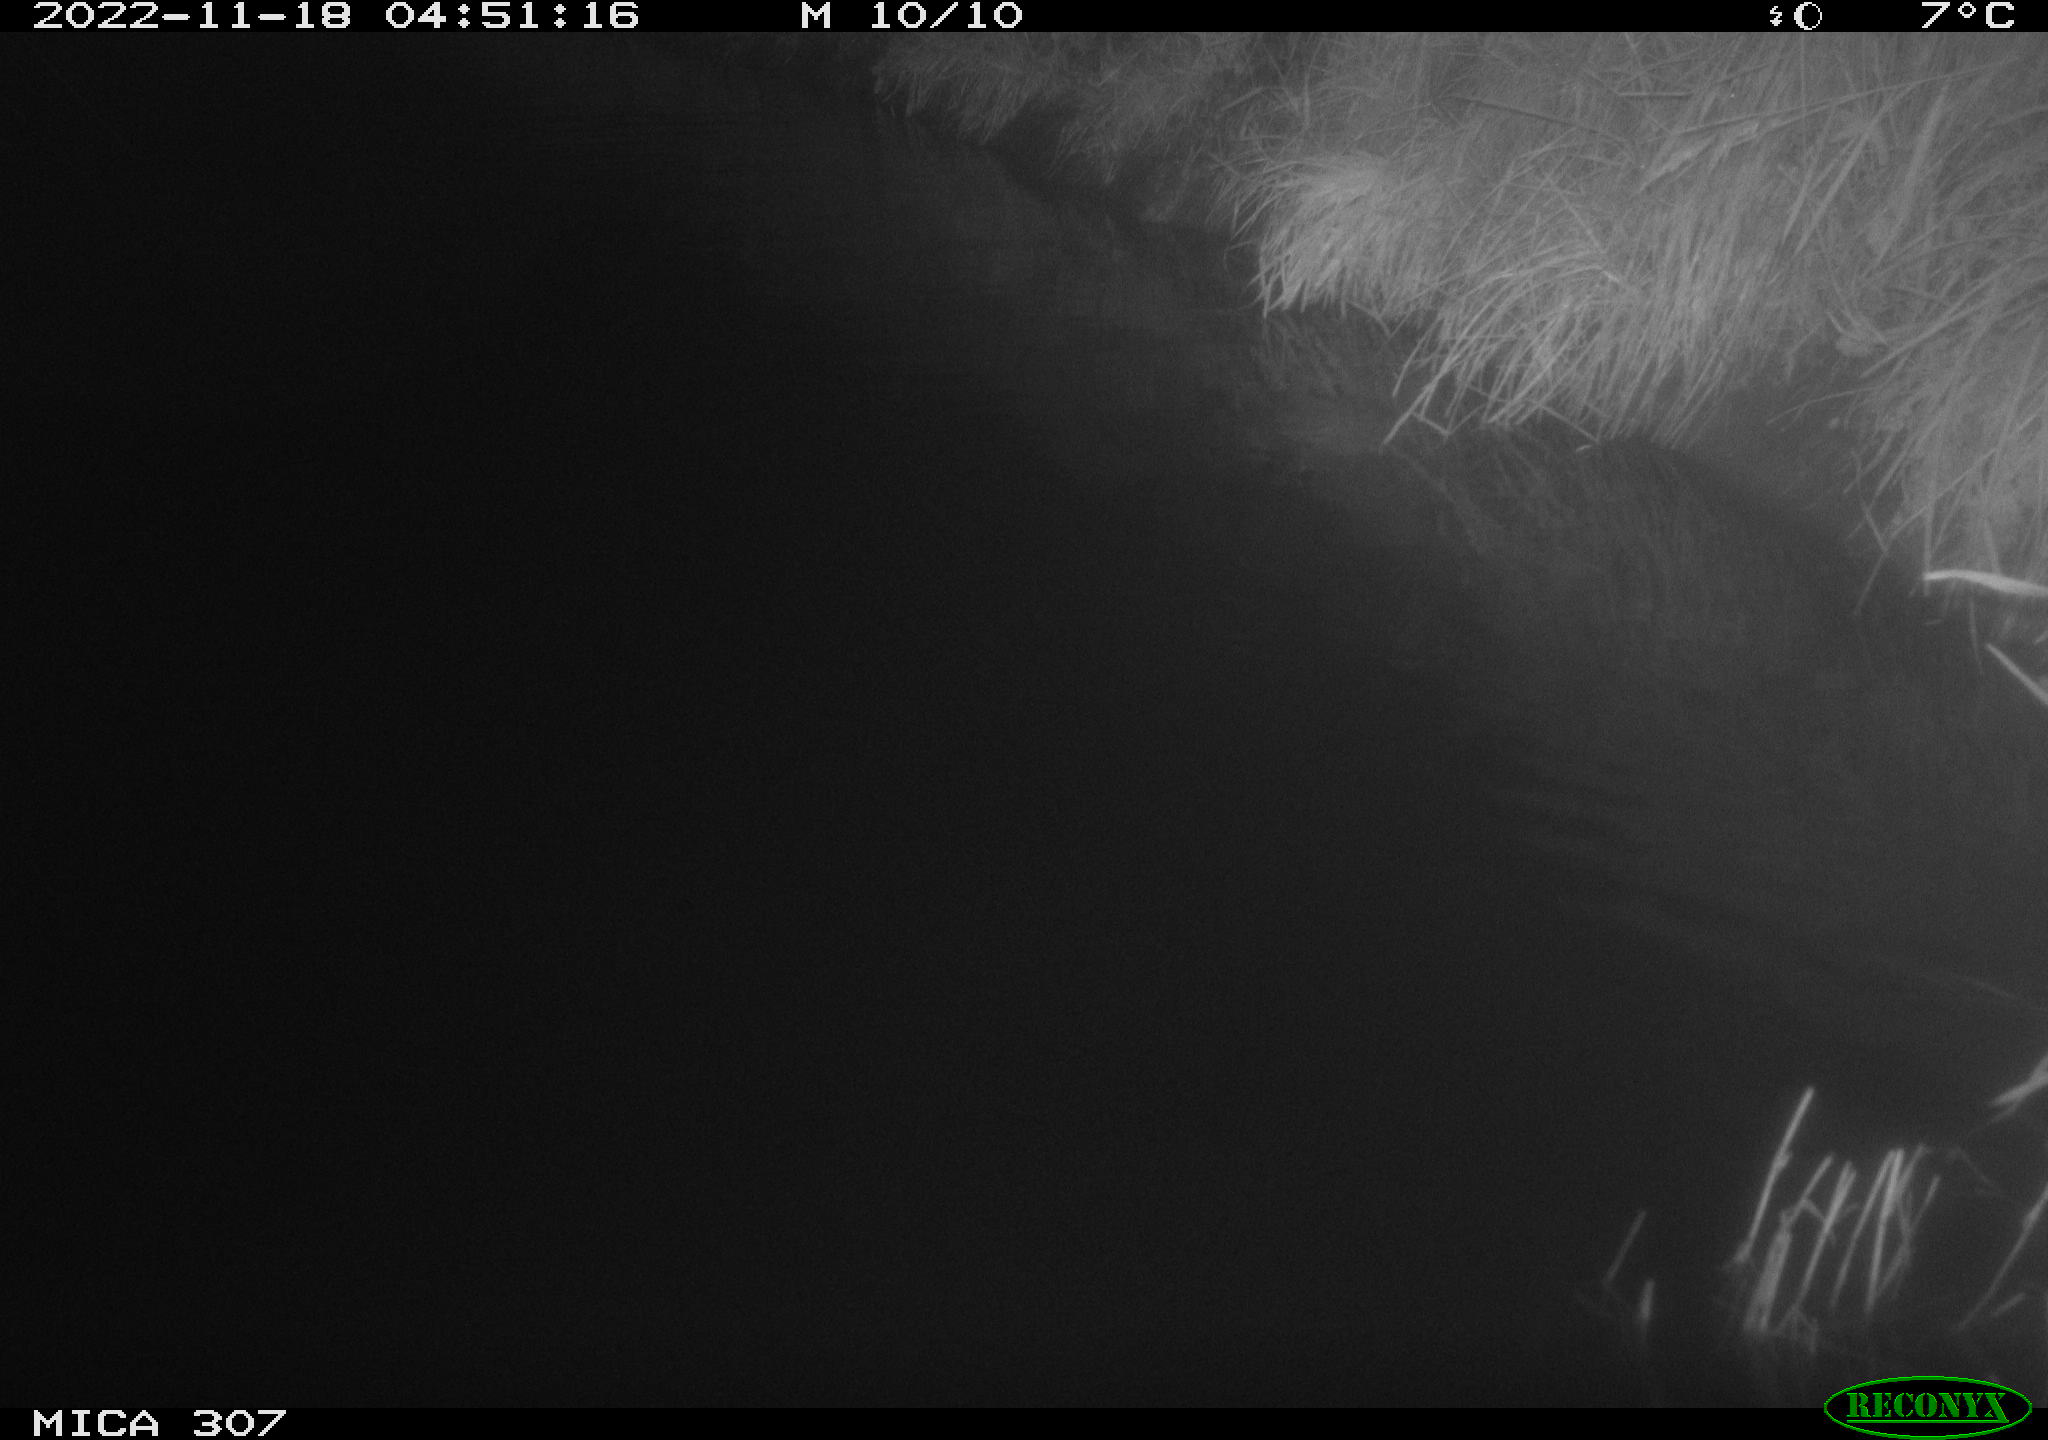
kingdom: Animalia
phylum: Chordata
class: Aves
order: Anseriformes
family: Anatidae
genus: Anas
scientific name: Anas
